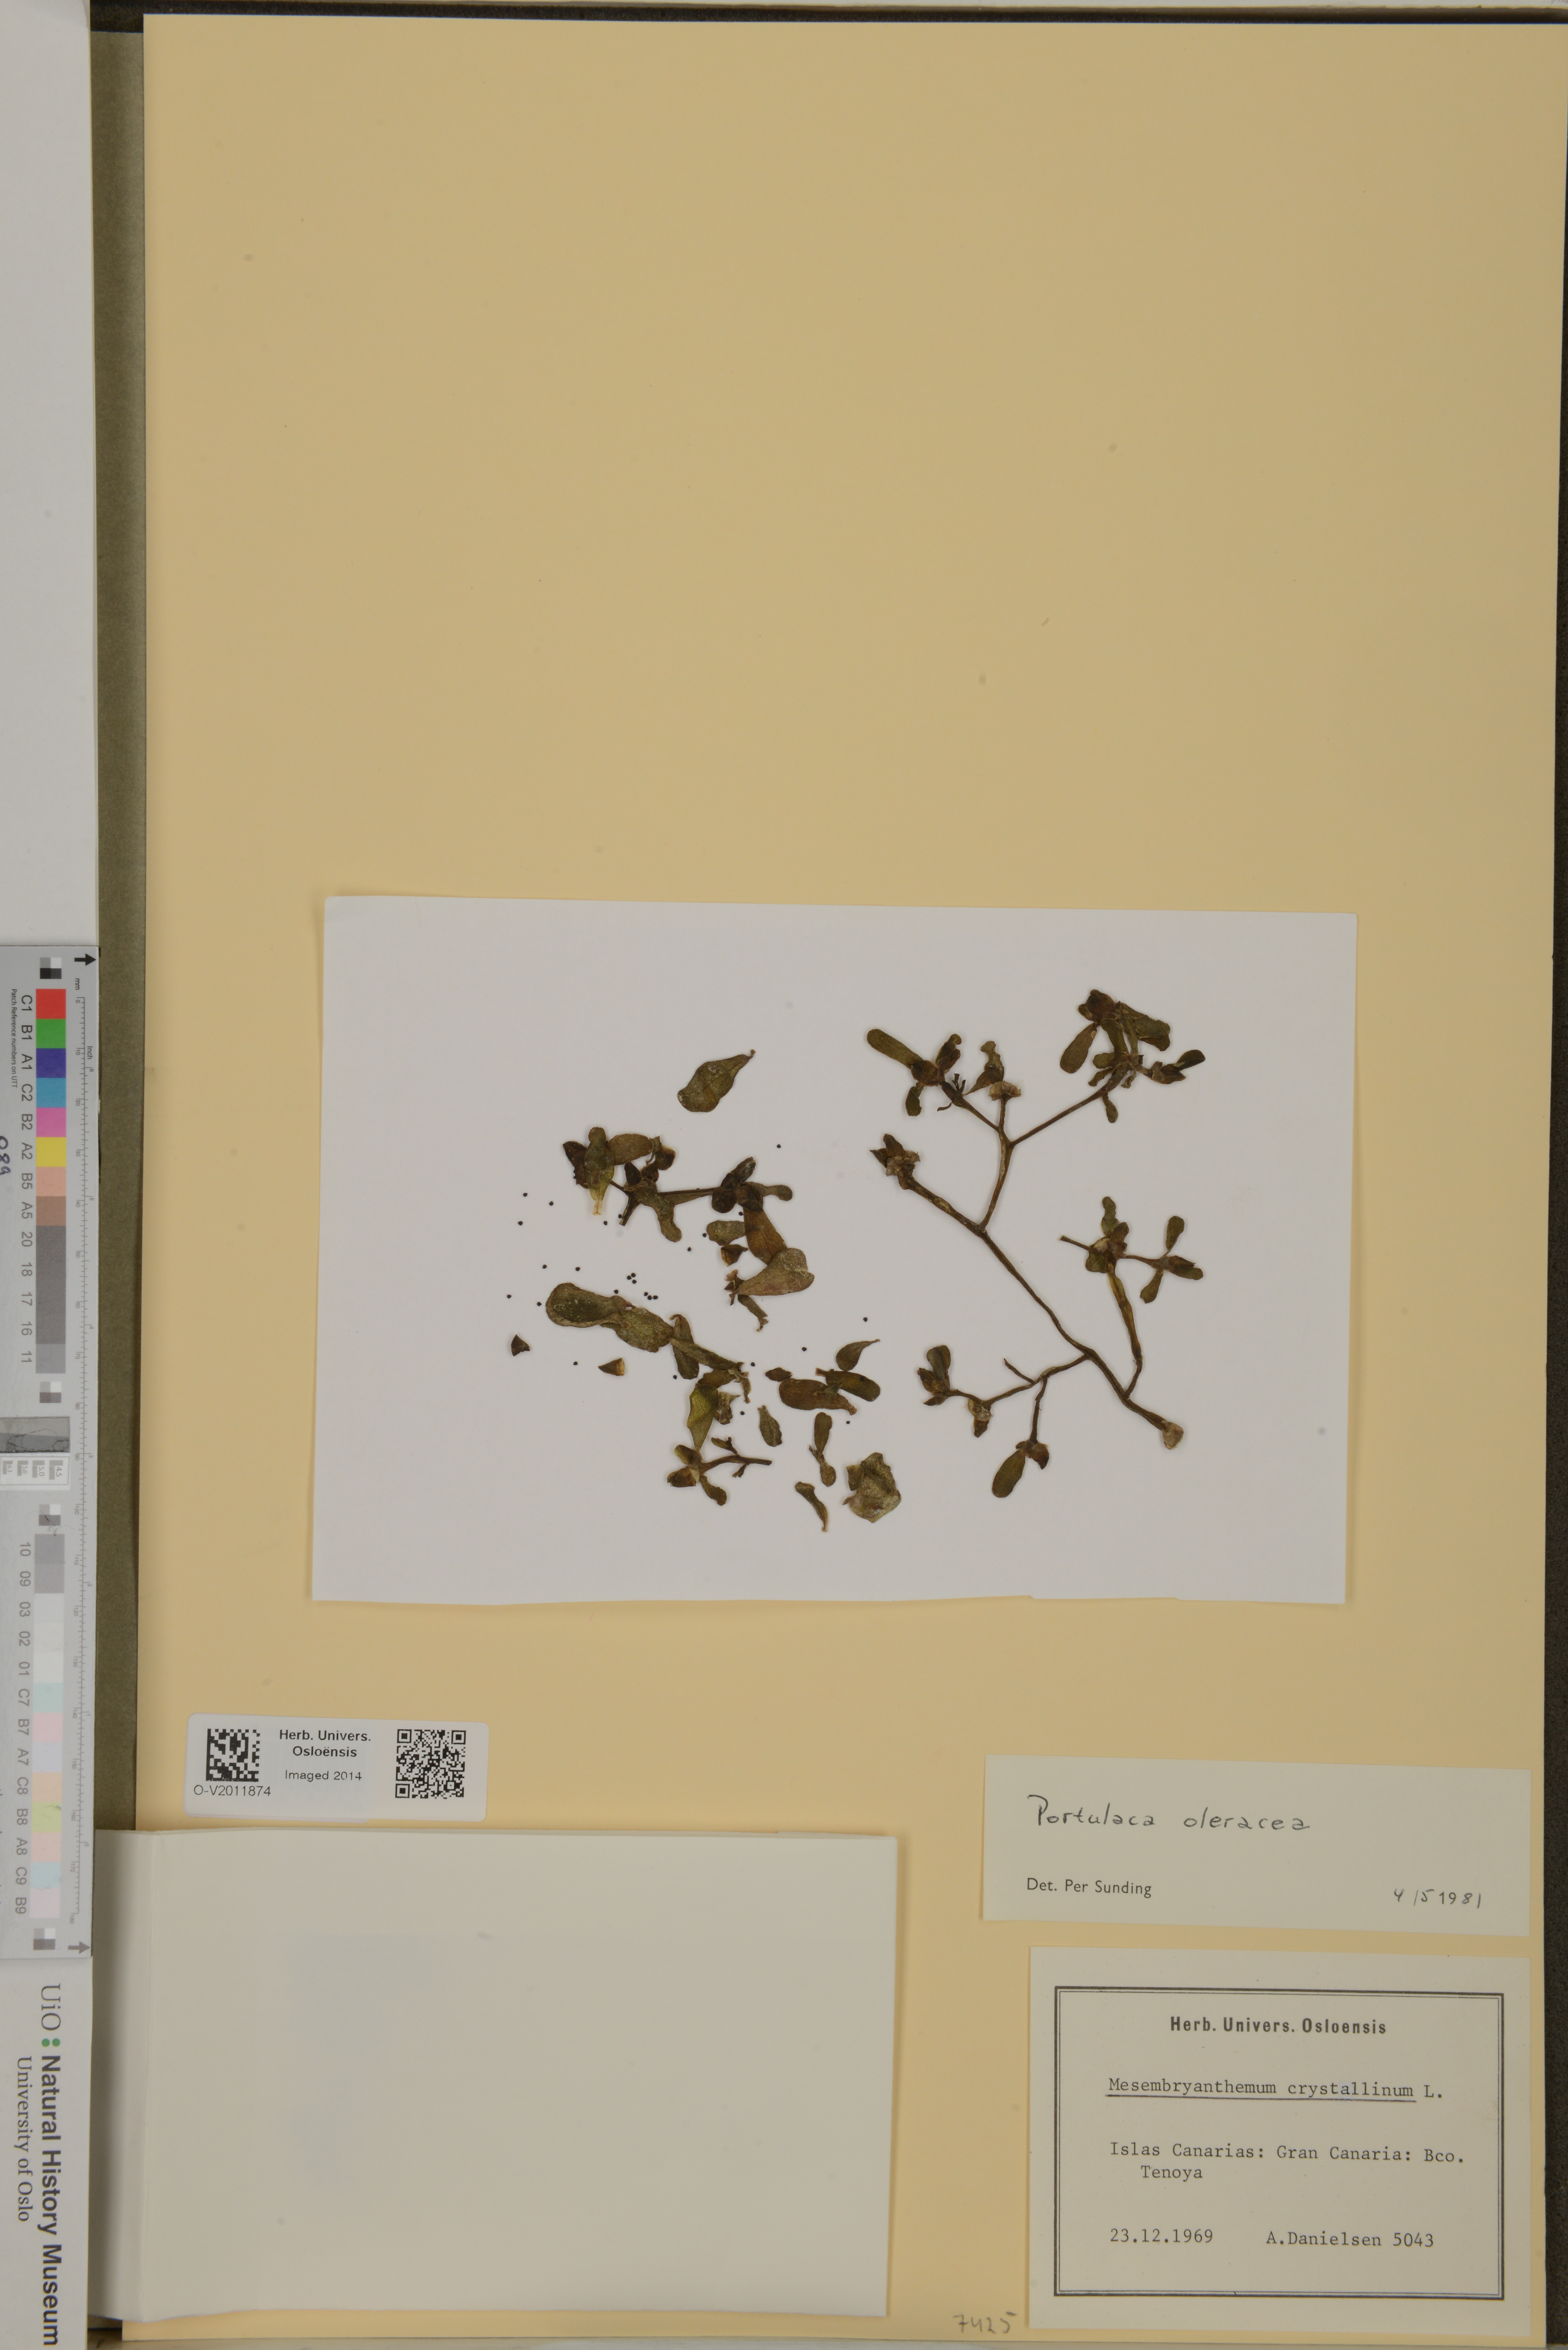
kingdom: Plantae
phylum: Tracheophyta
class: Magnoliopsida
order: Caryophyllales
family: Portulacaceae
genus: Portulaca
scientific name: Portulaca oleracea
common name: Common purslane
